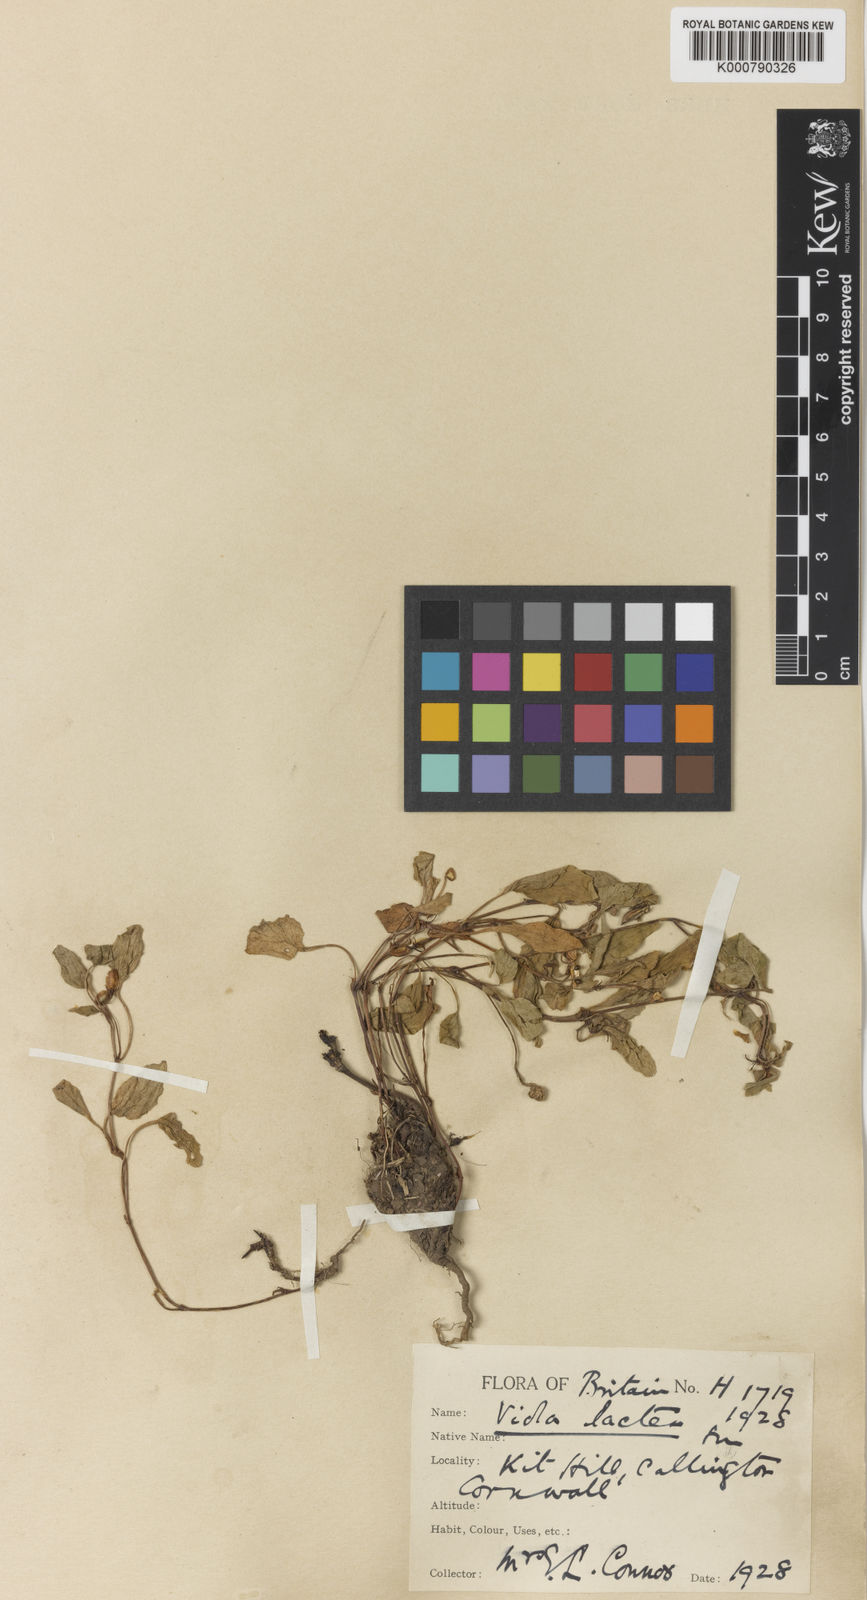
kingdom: Plantae
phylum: Tracheophyta
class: Magnoliopsida
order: Malpighiales
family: Violaceae
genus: Viola
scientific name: Viola lactea
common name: Pale dog-violet
